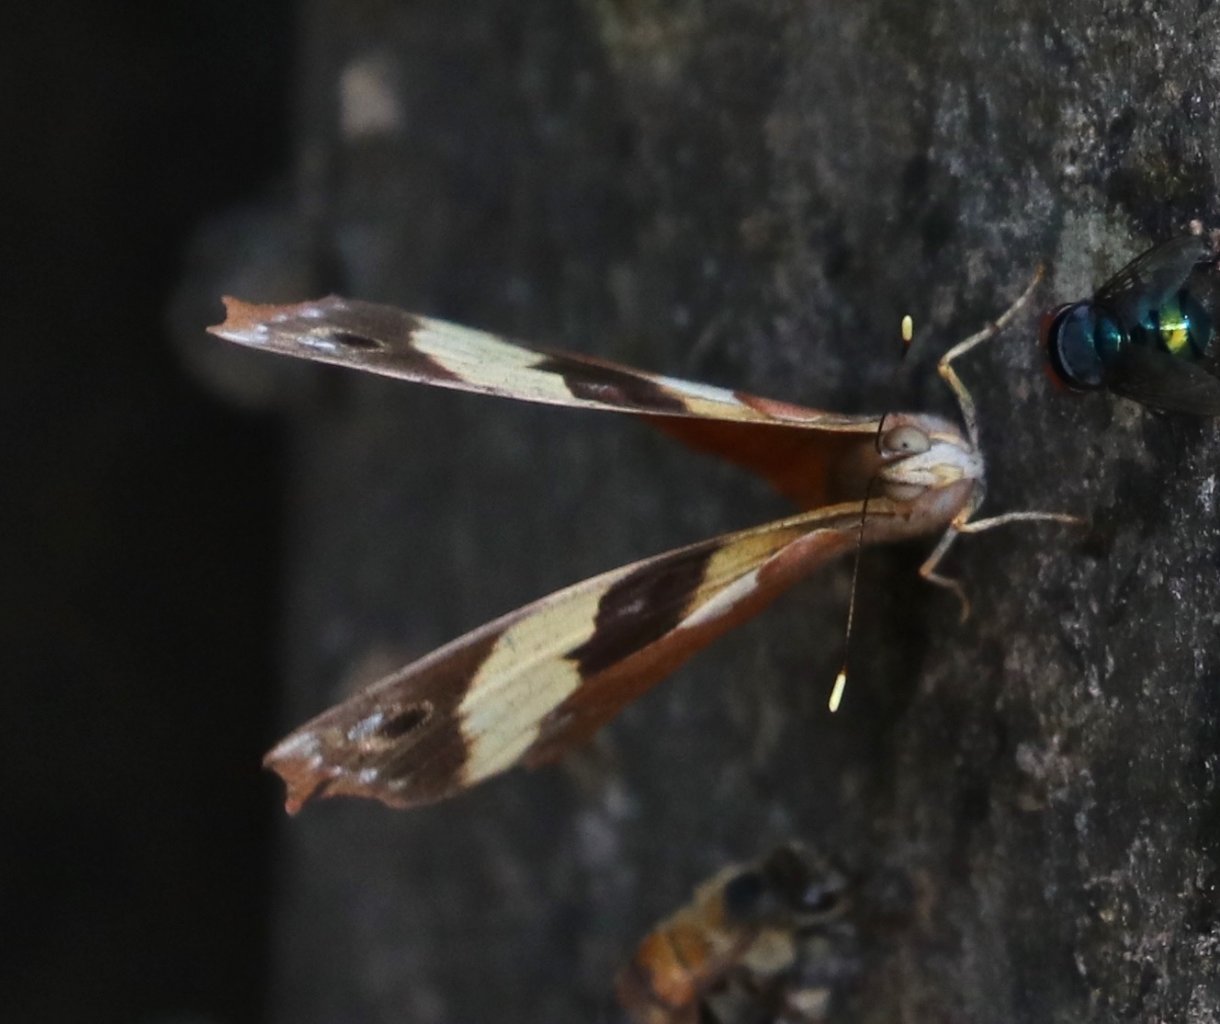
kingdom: Animalia
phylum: Arthropoda
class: Insecta
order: Lepidoptera
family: Nymphalidae
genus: Epiphile
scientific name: Epiphile adrasta
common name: Common Banner
